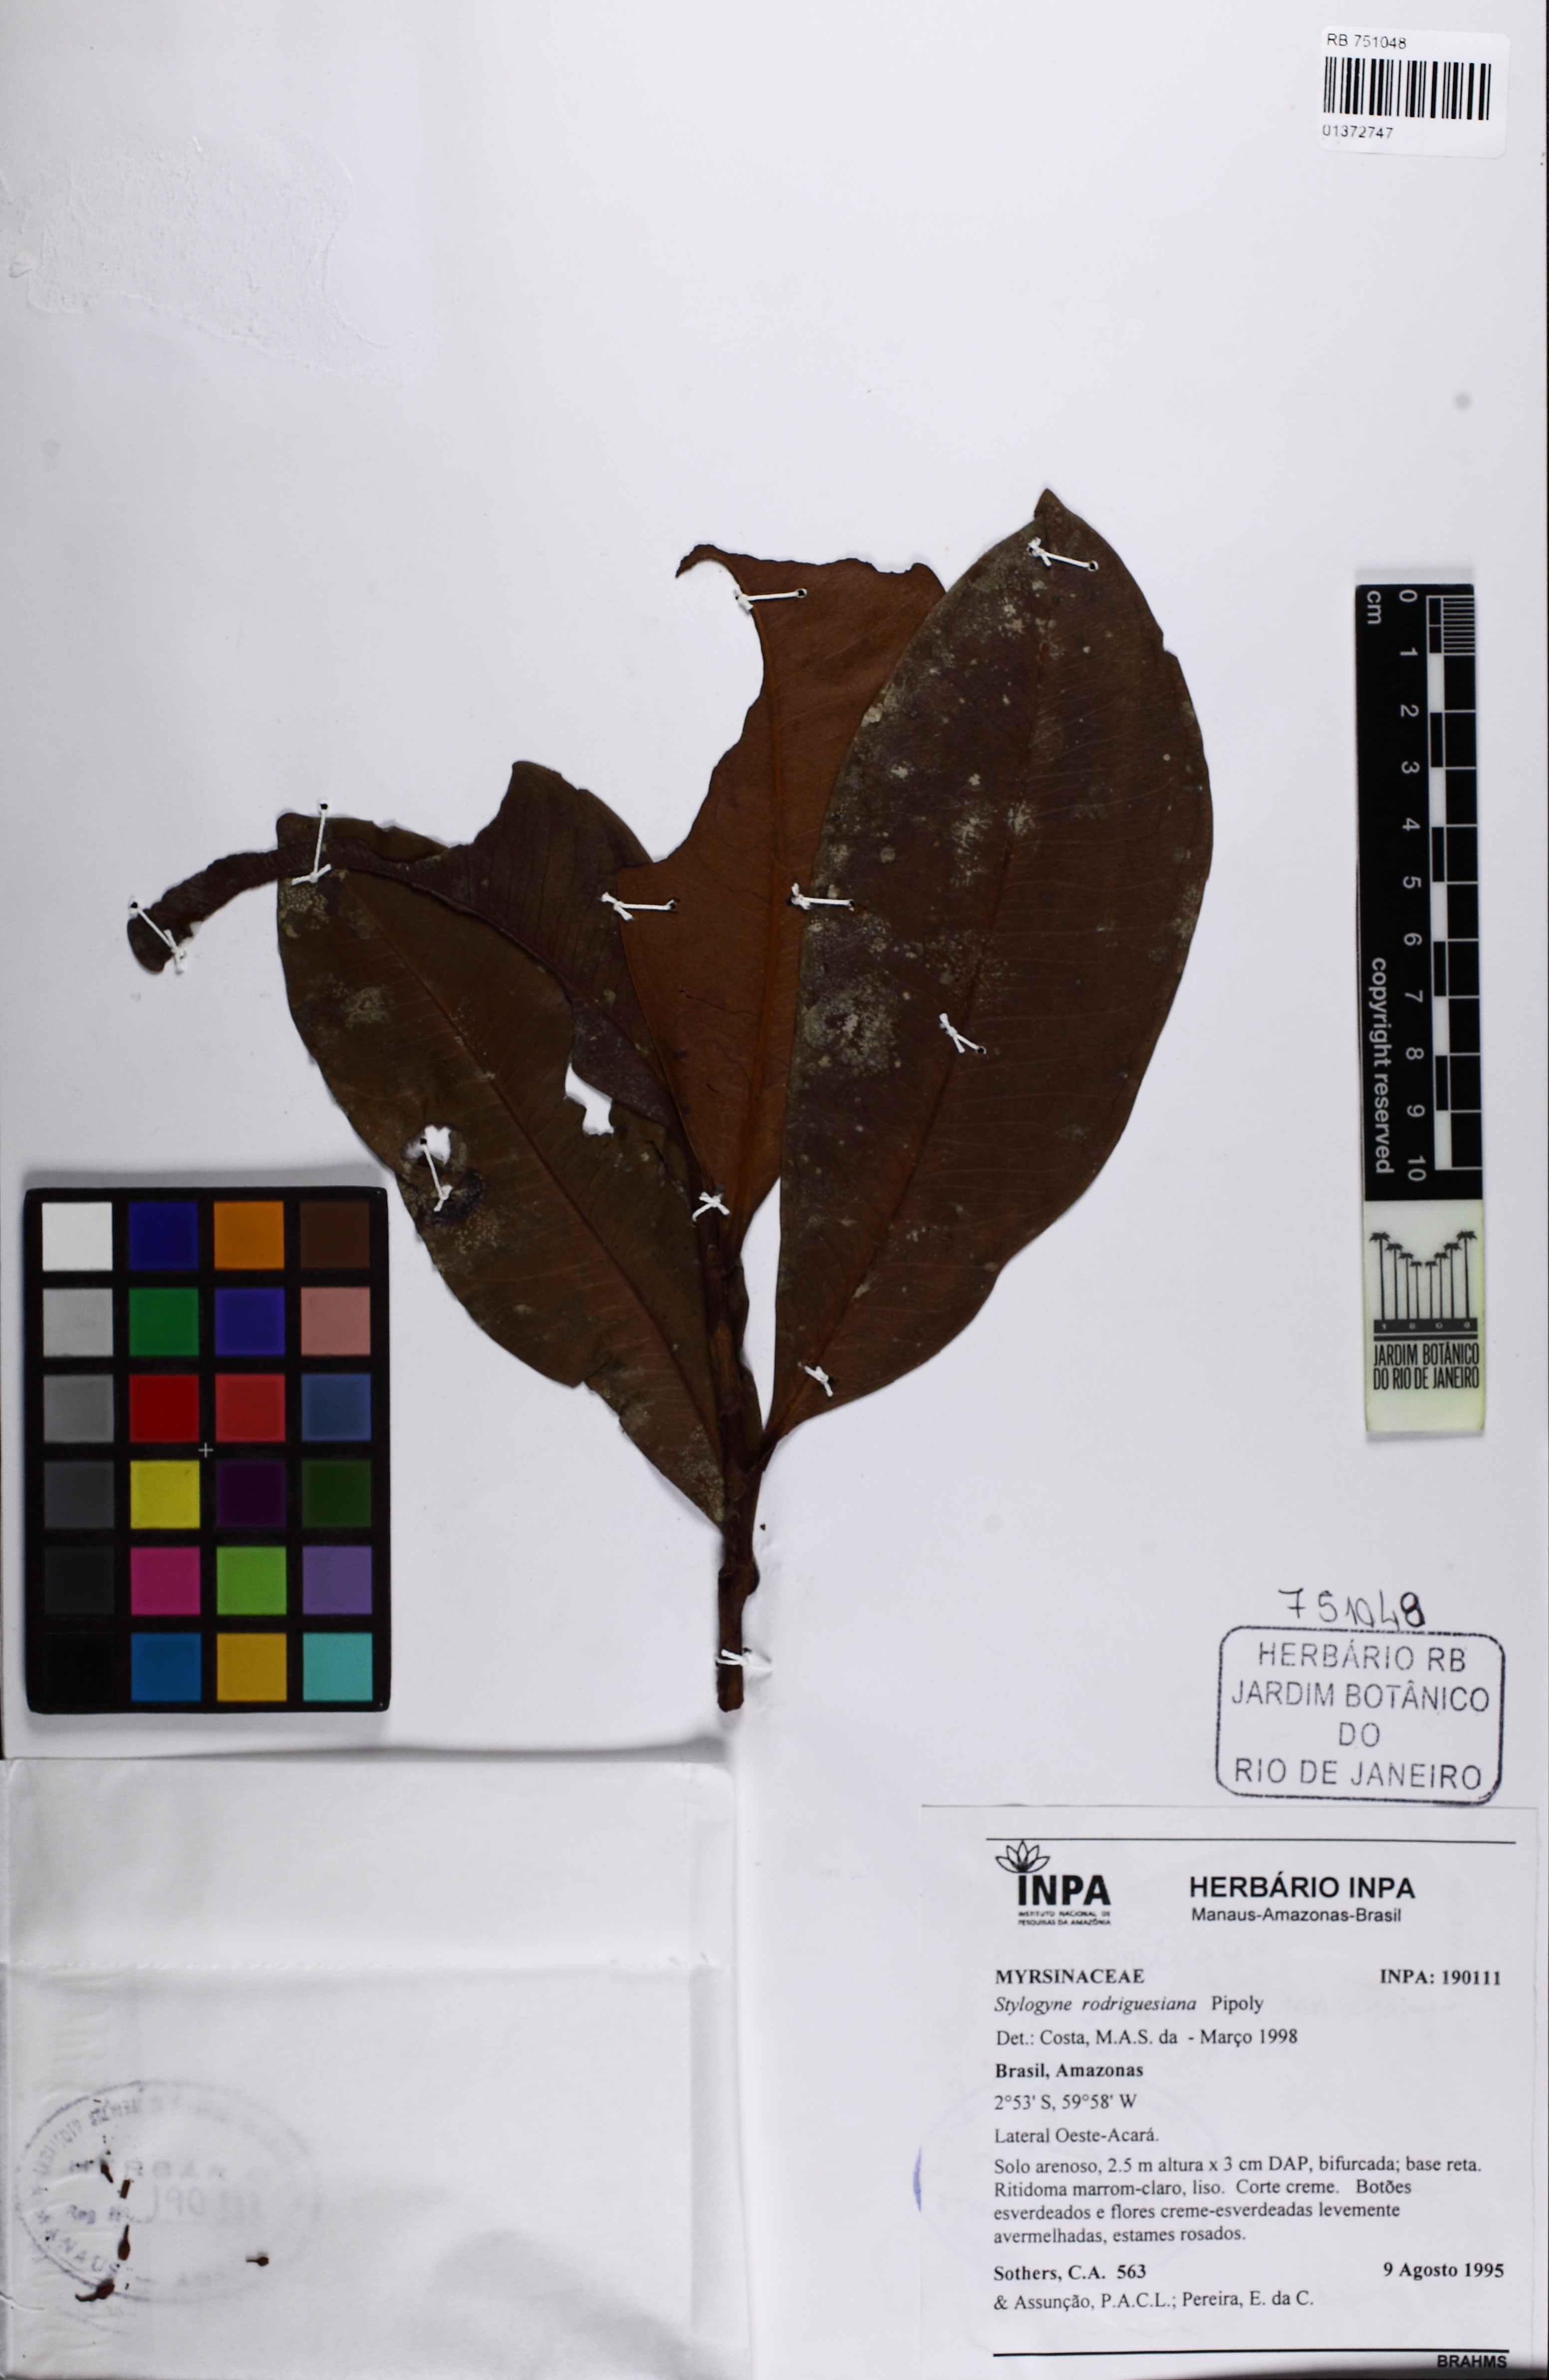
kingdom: Plantae
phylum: Tracheophyta
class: Magnoliopsida
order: Ericales
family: Primulaceae
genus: Stylogyne
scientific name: Stylogyne atra
